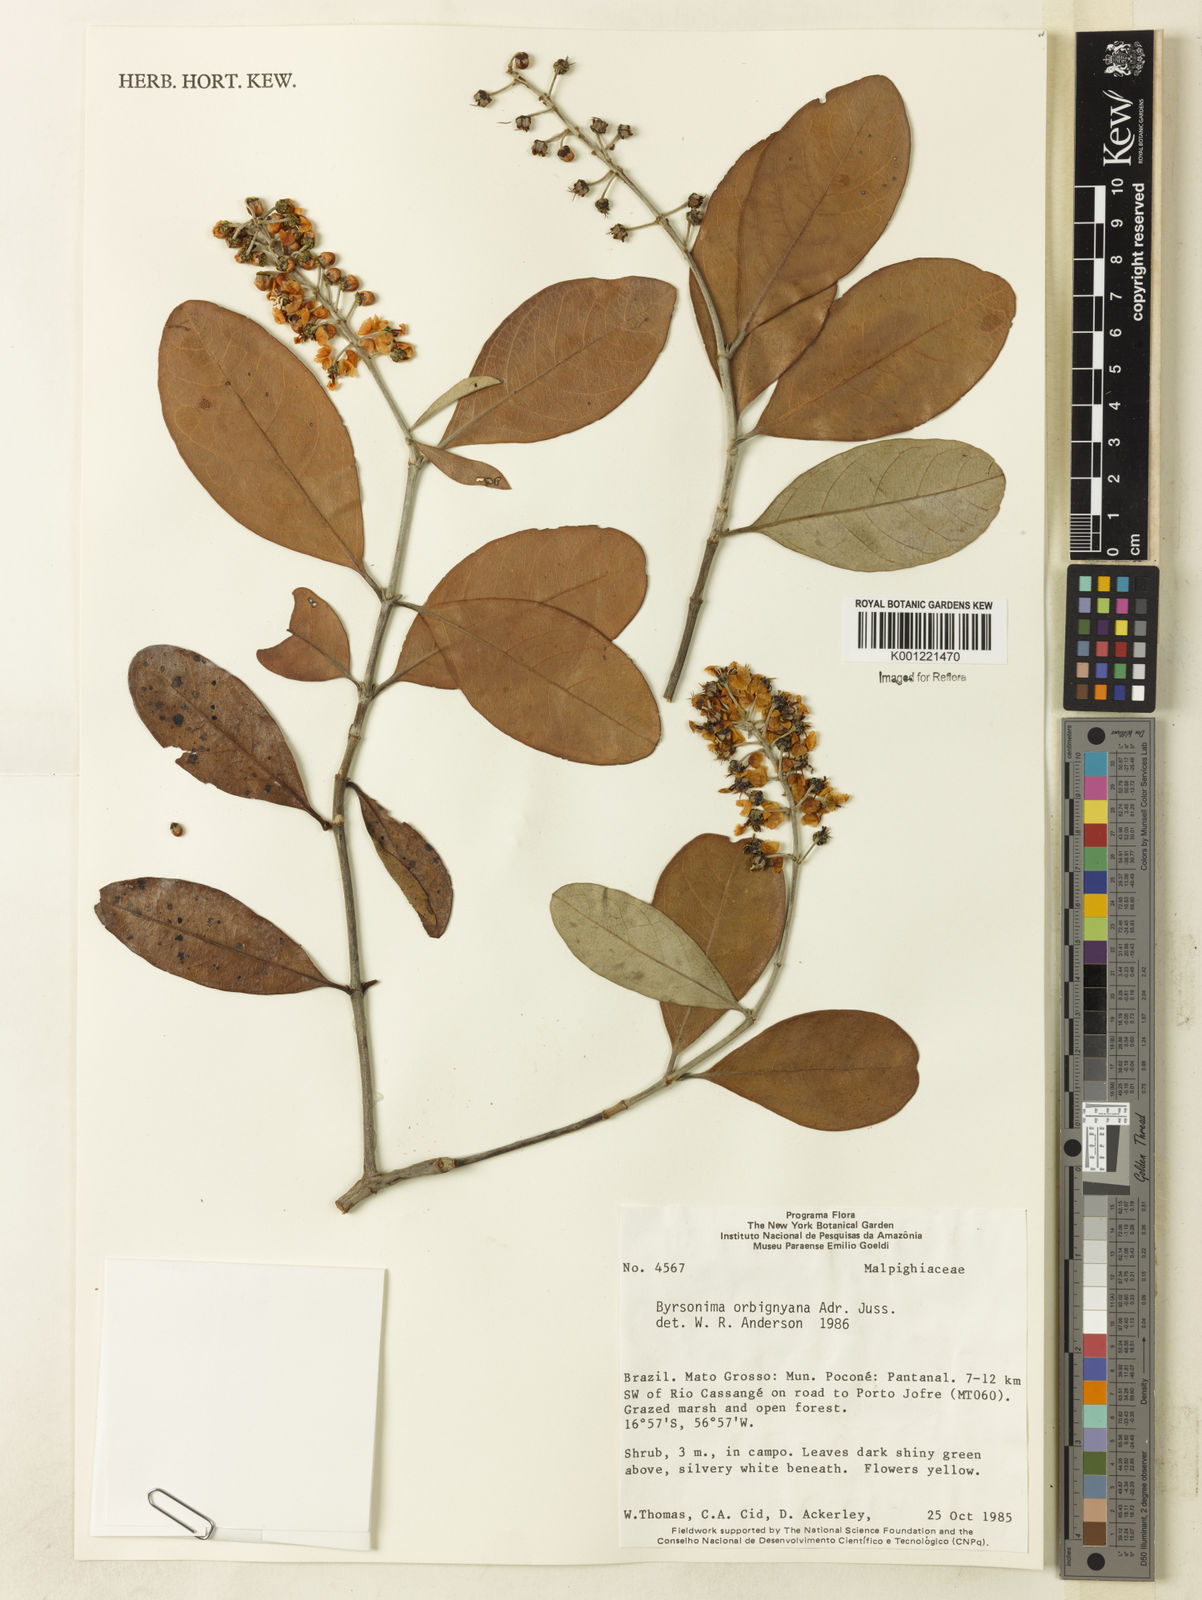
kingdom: Plantae
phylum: Tracheophyta
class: Magnoliopsida
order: Malpighiales
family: Malpighiaceae
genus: Byrsonima
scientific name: Byrsonima cydoniifolia
